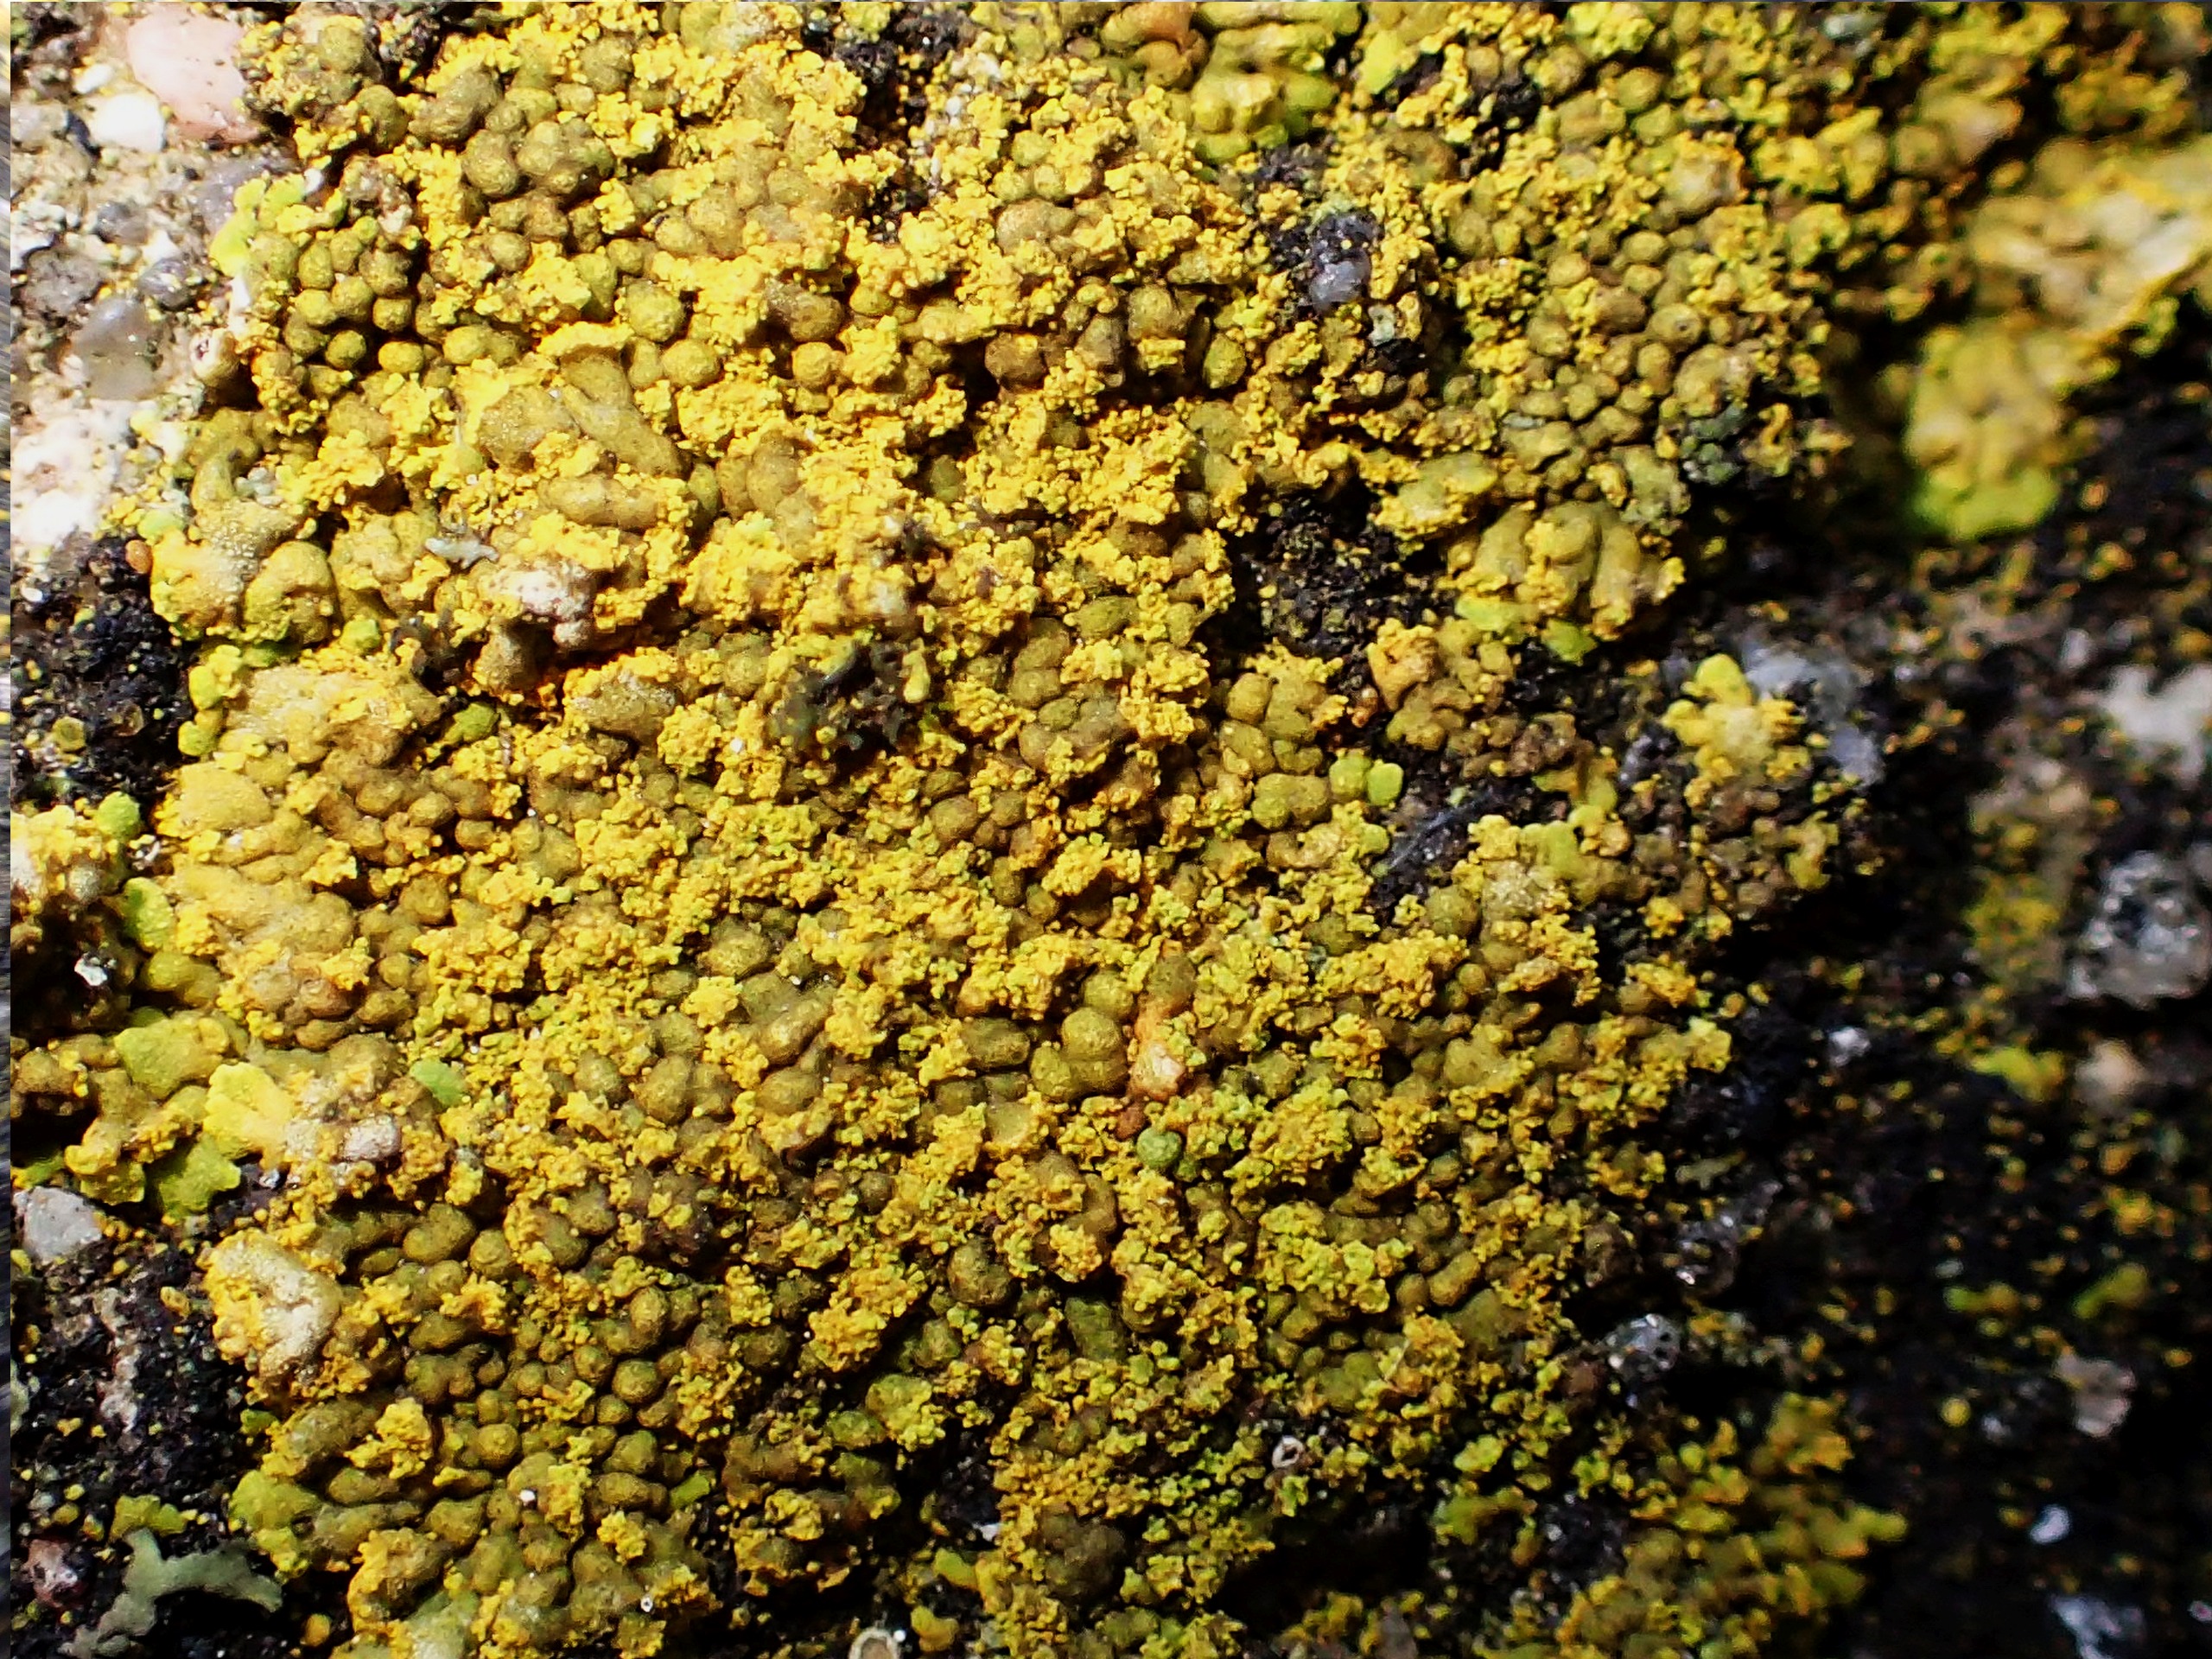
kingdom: Fungi
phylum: Ascomycota
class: Lecanoromycetes
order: Teloschistales
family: Teloschistaceae
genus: Calogaya
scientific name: Calogaya decipiens
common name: Knudret orangelav
